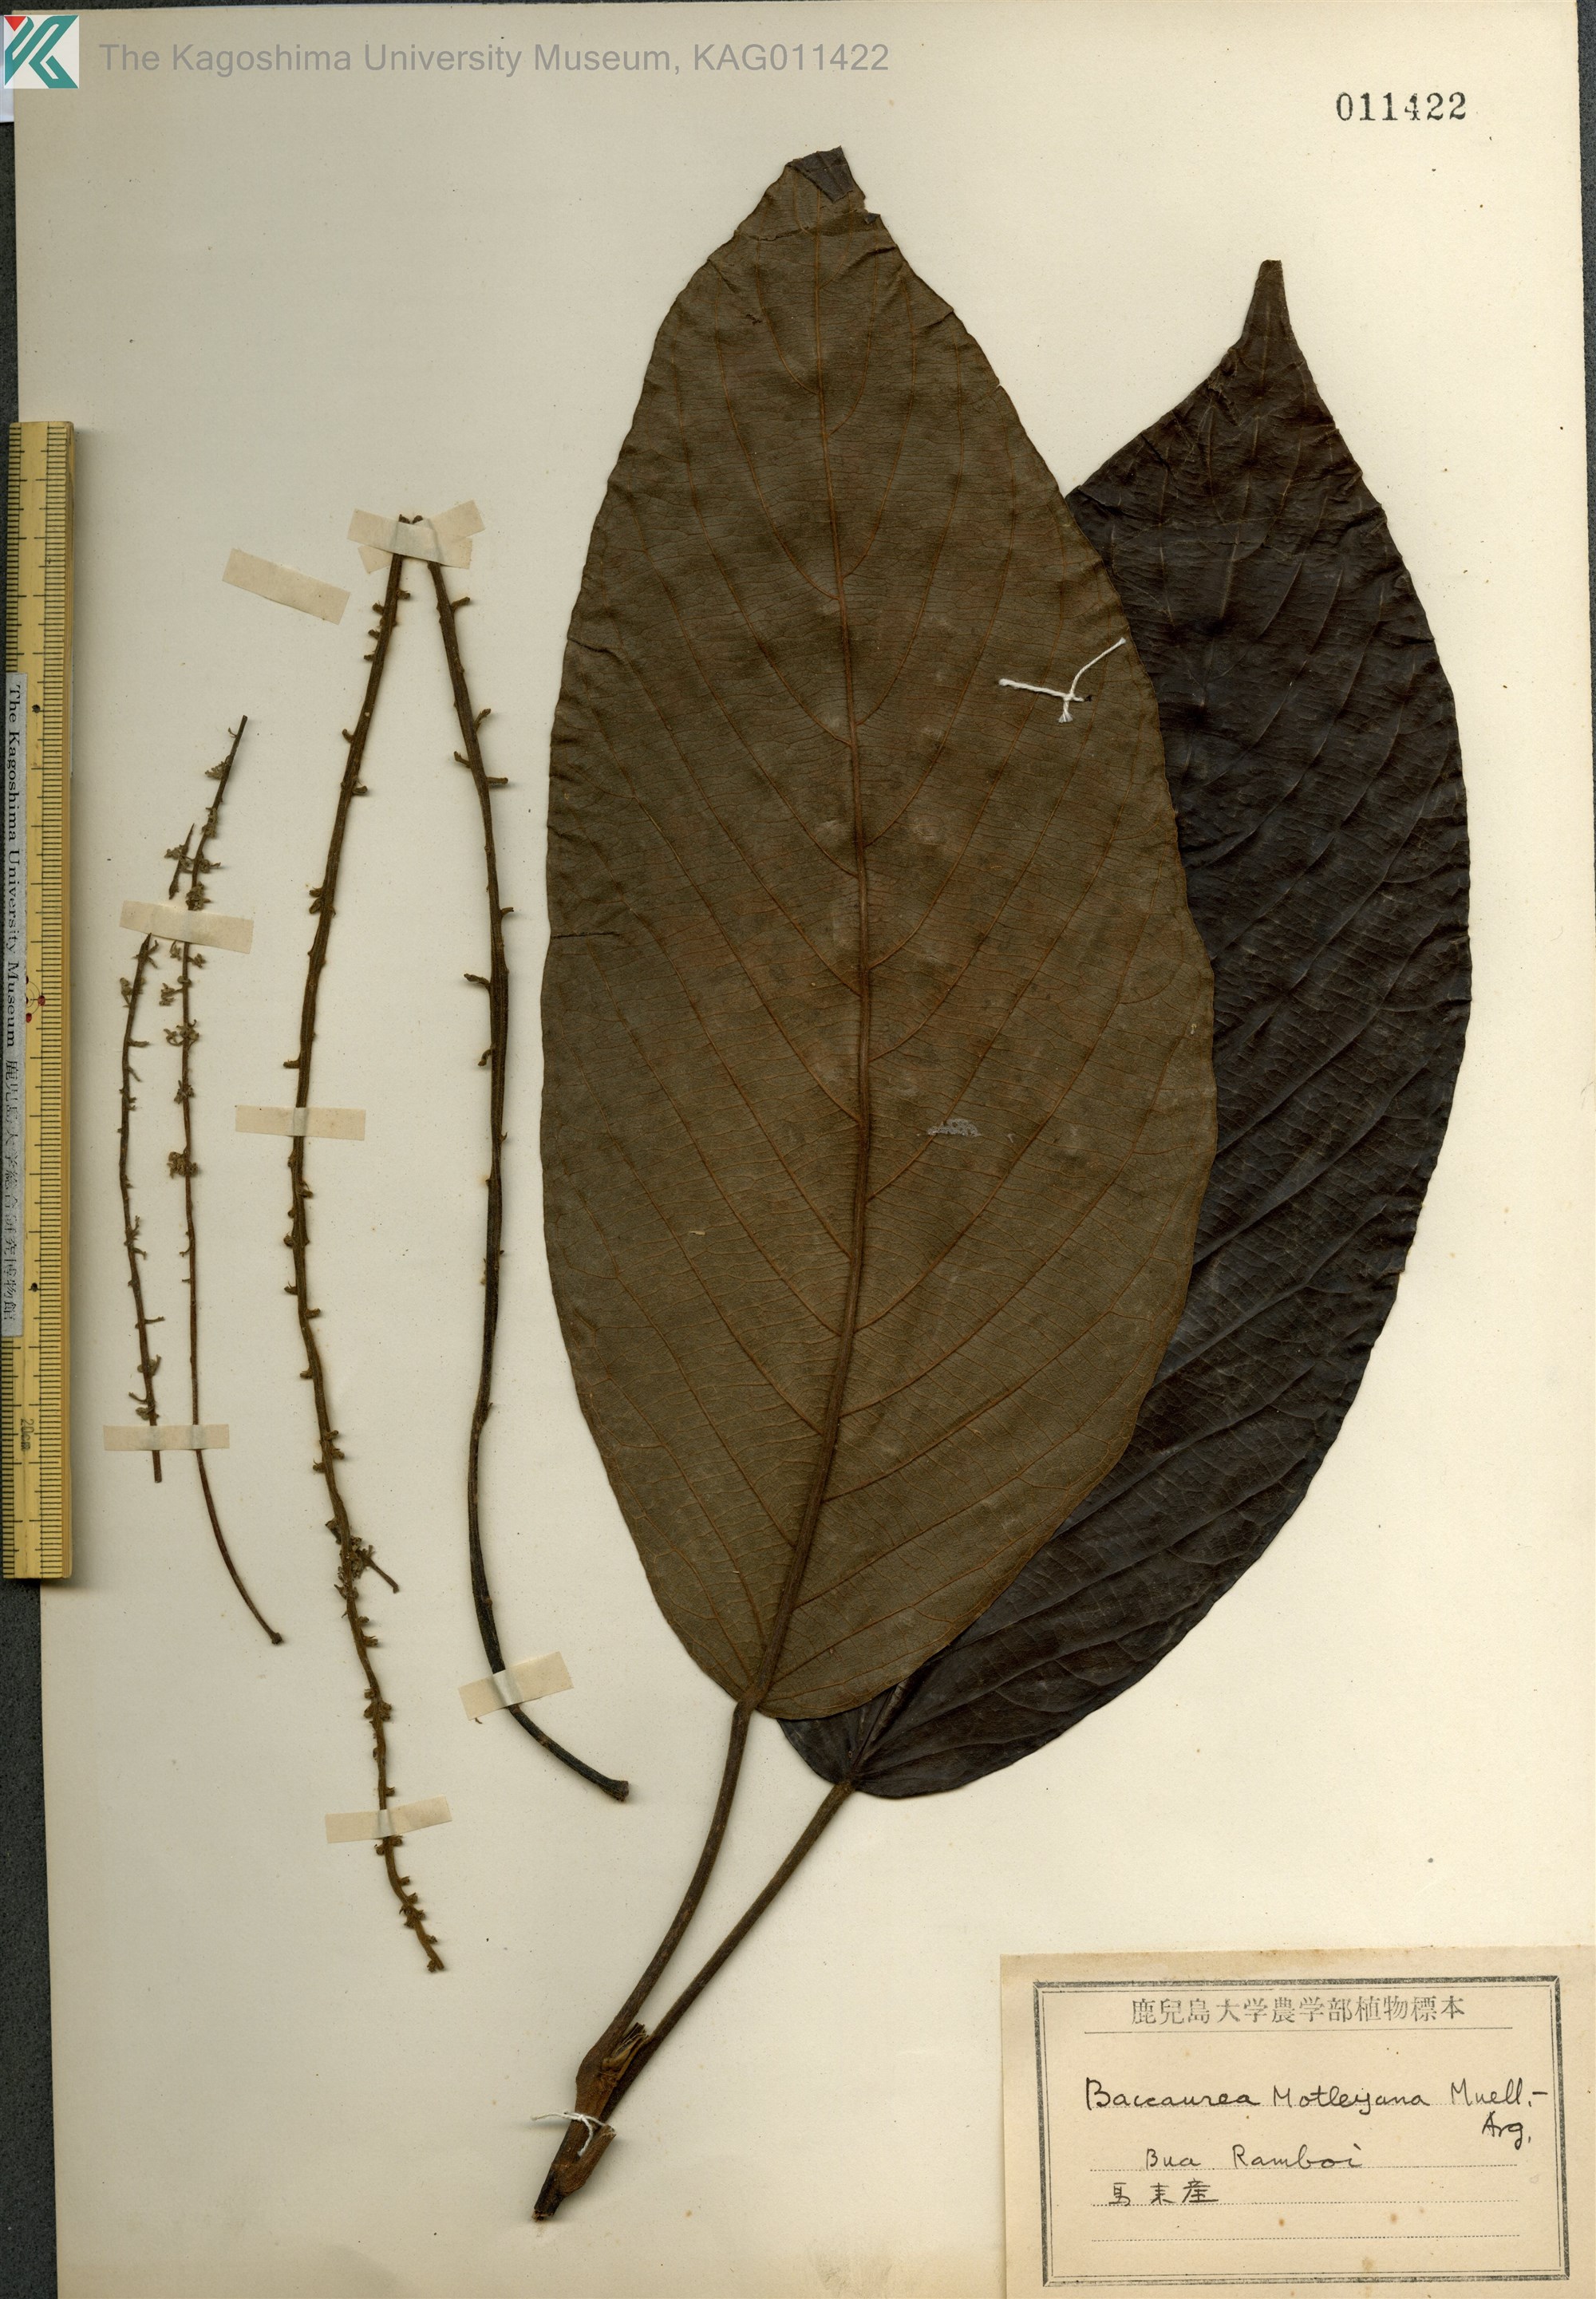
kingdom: Plantae
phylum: Tracheophyta
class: Magnoliopsida
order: Malpighiales
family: Phyllanthaceae
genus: Baccaurea
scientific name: Baccaurea motleyana
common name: Rambai
